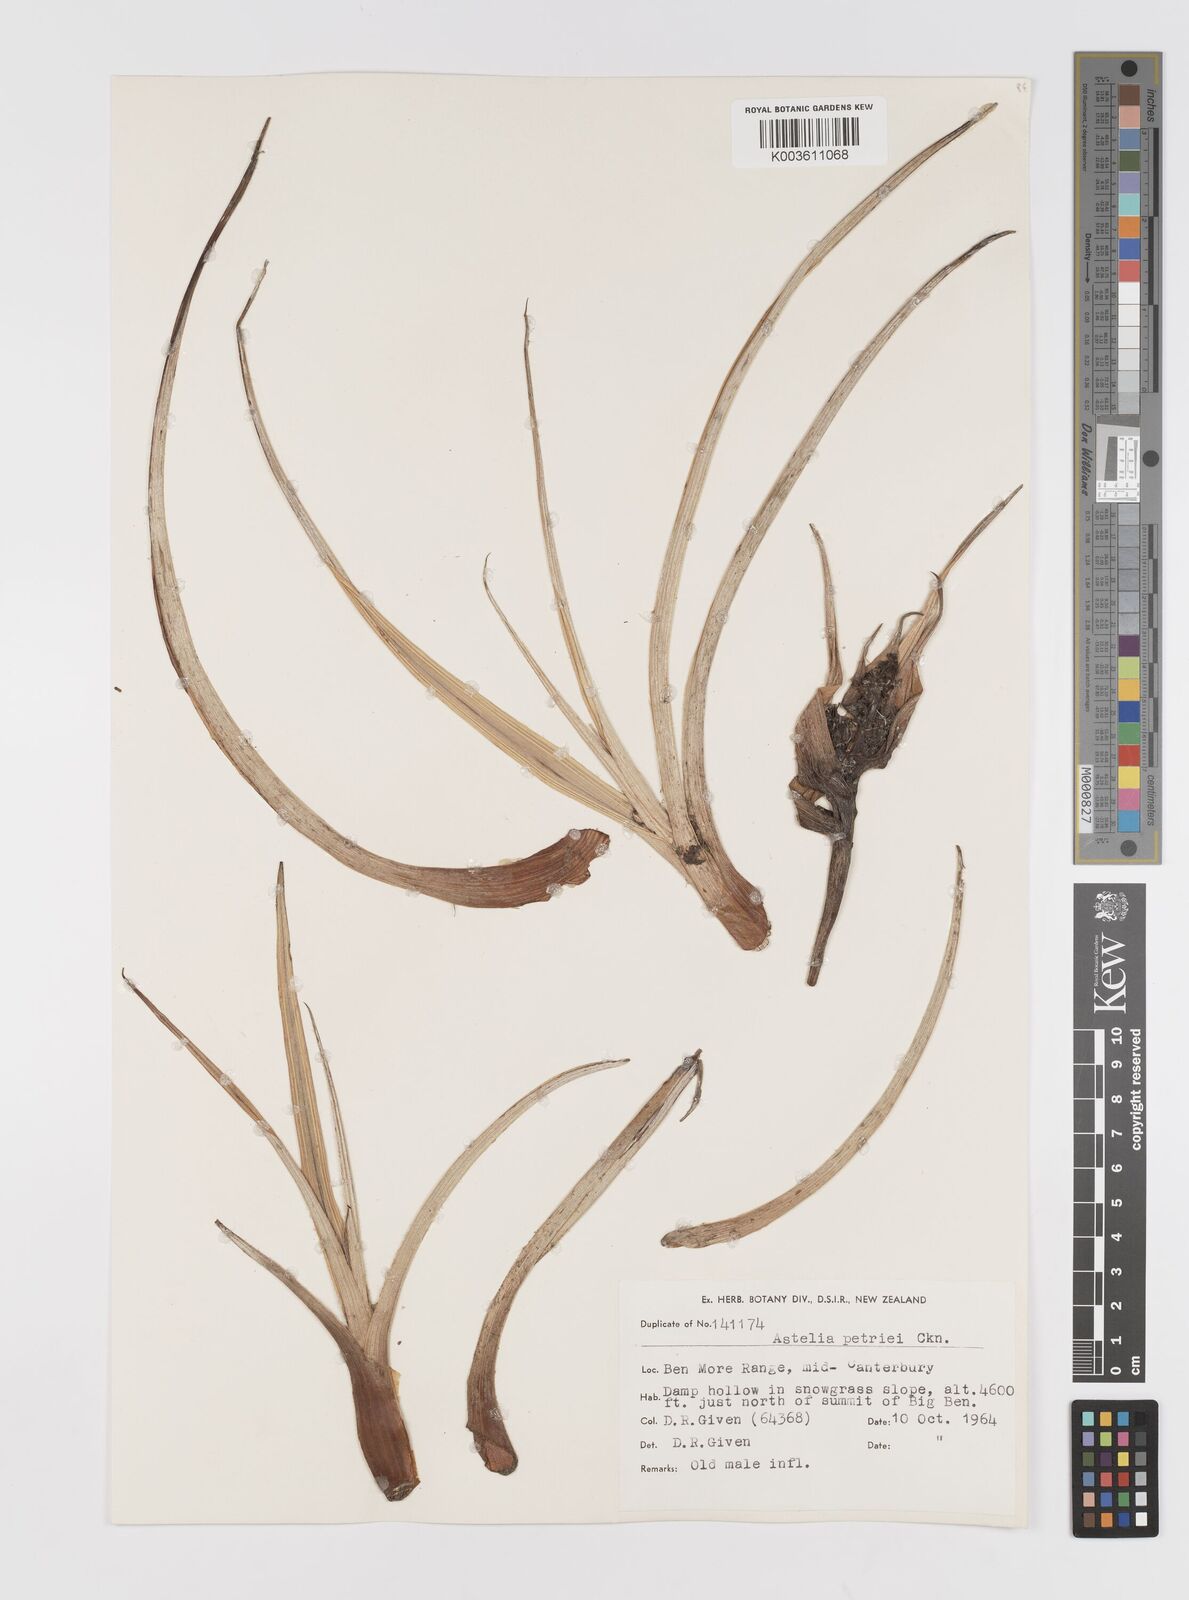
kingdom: Plantae
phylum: Tracheophyta
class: Liliopsida
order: Asparagales
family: Asteliaceae
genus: Astelia
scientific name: Astelia petriei
